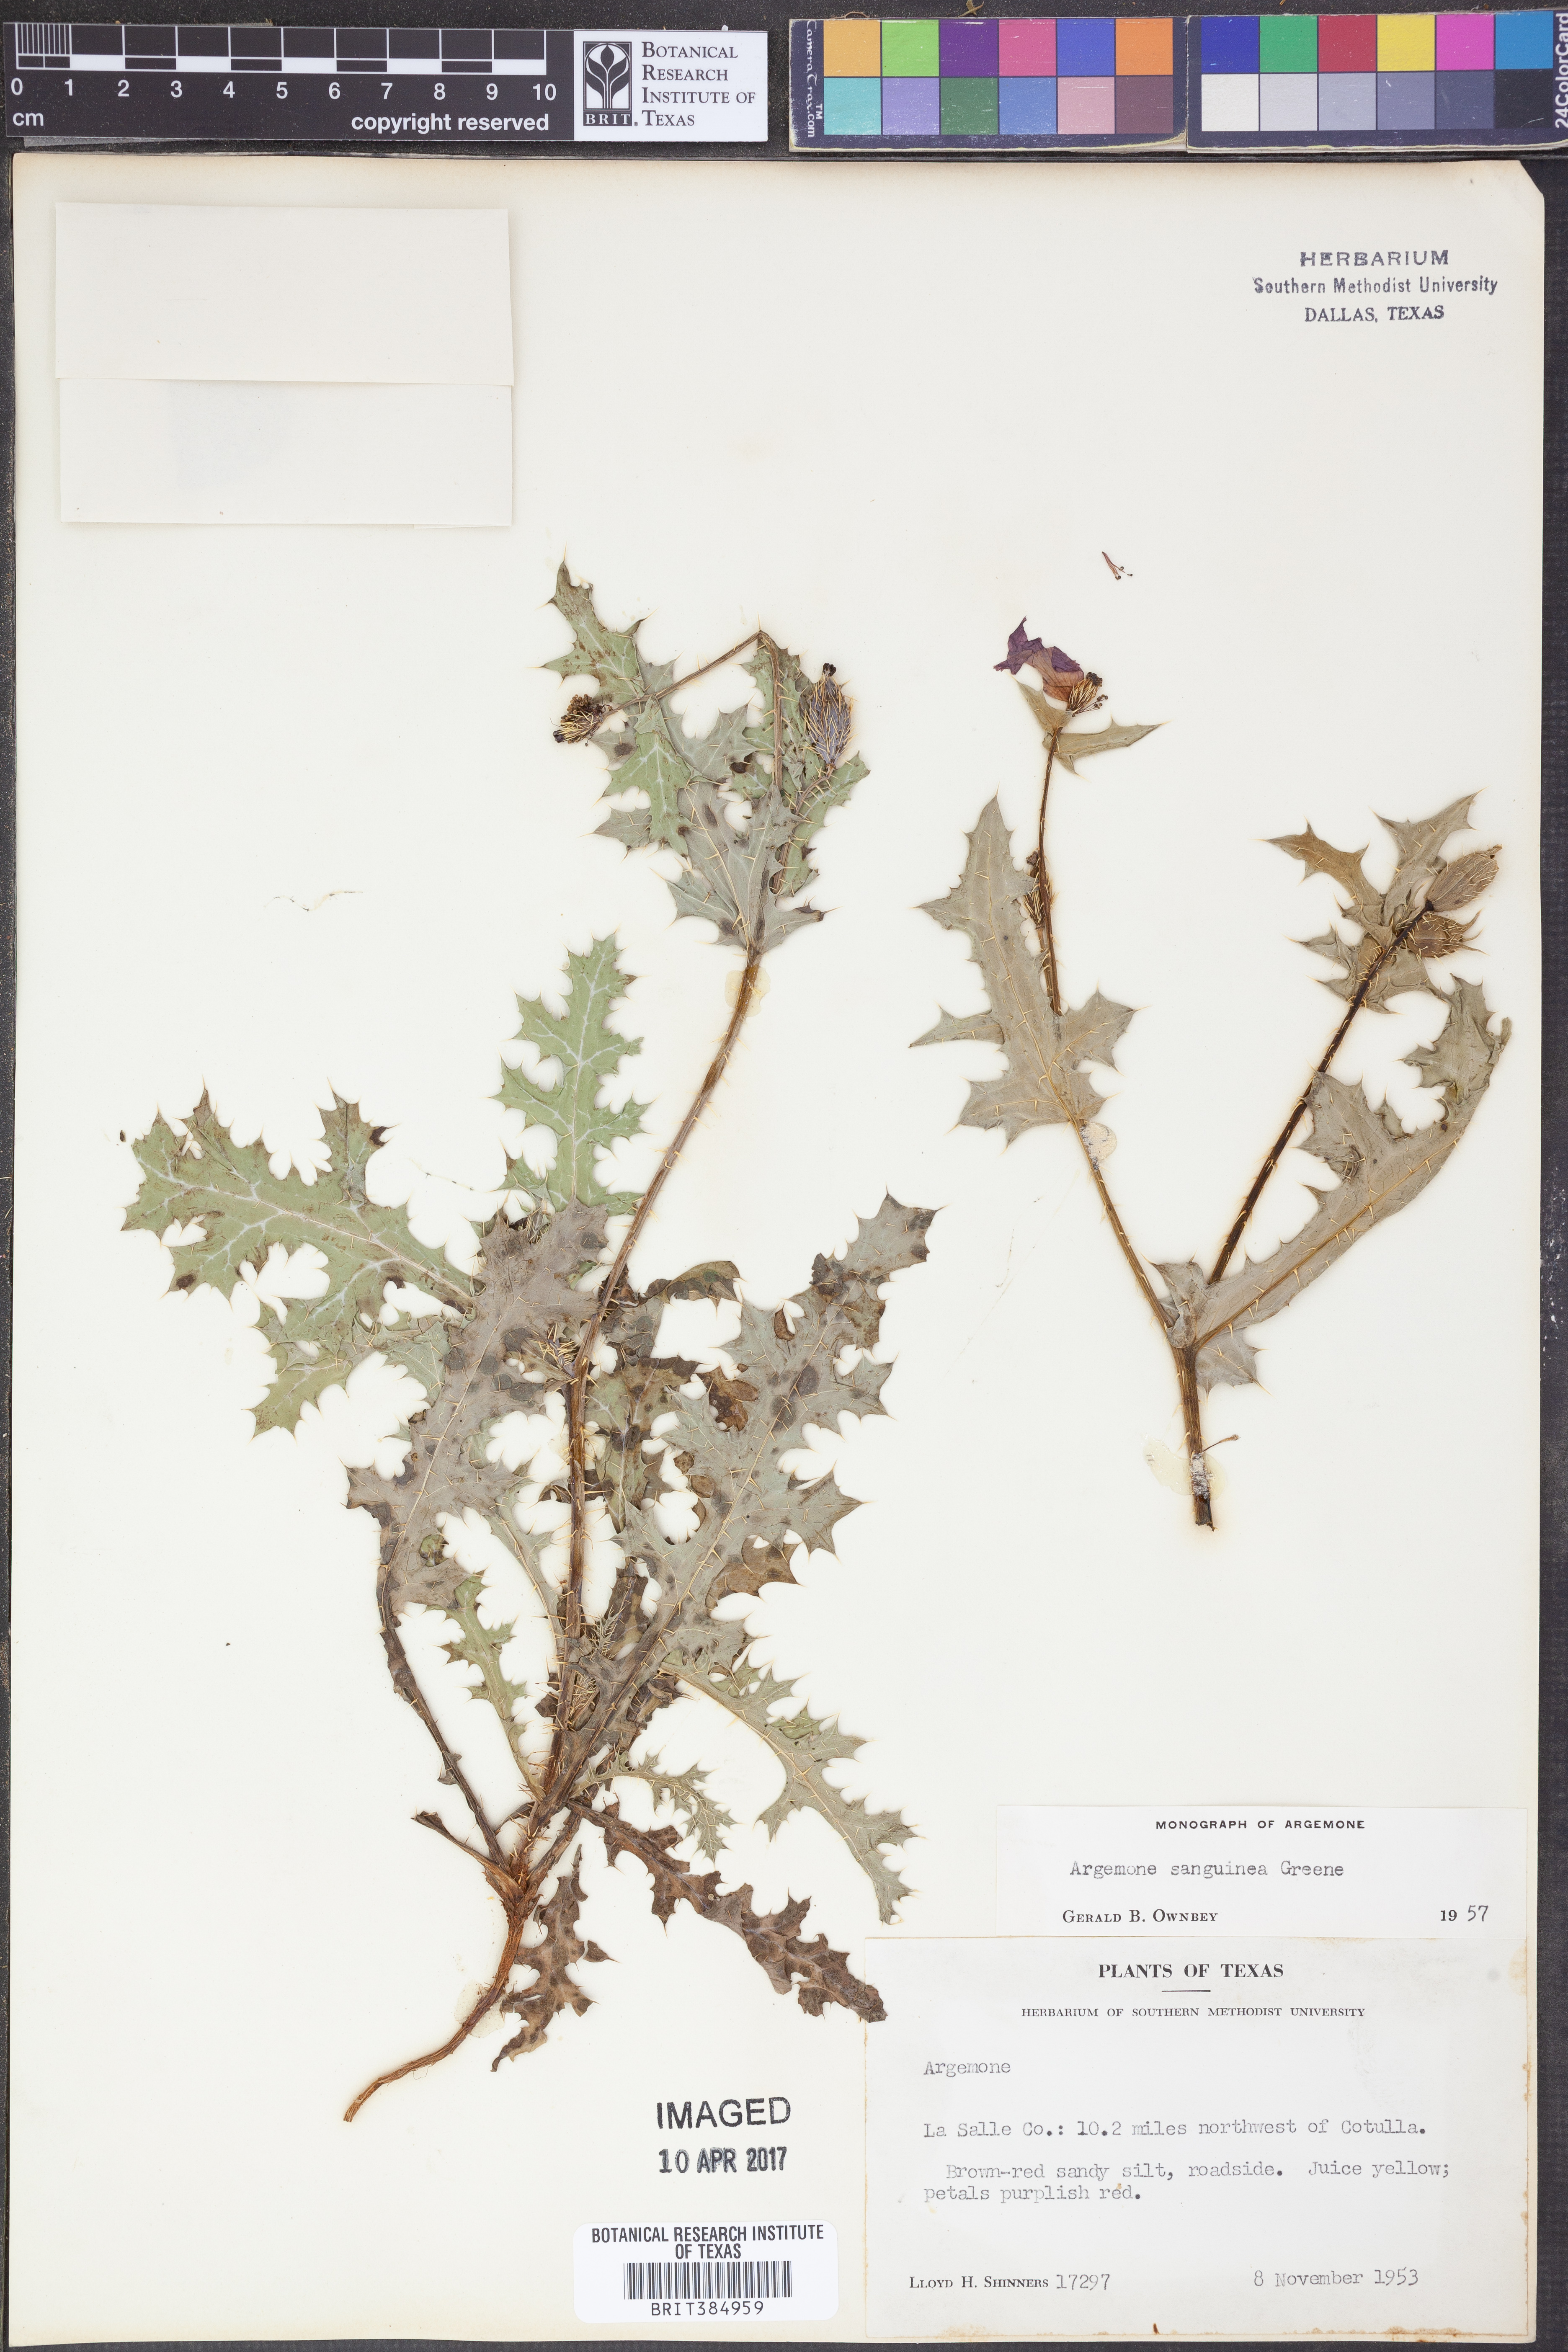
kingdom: Plantae
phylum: Tracheophyta
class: Magnoliopsida
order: Ranunculales
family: Papaveraceae
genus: Argemone
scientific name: Argemone sanguinea
